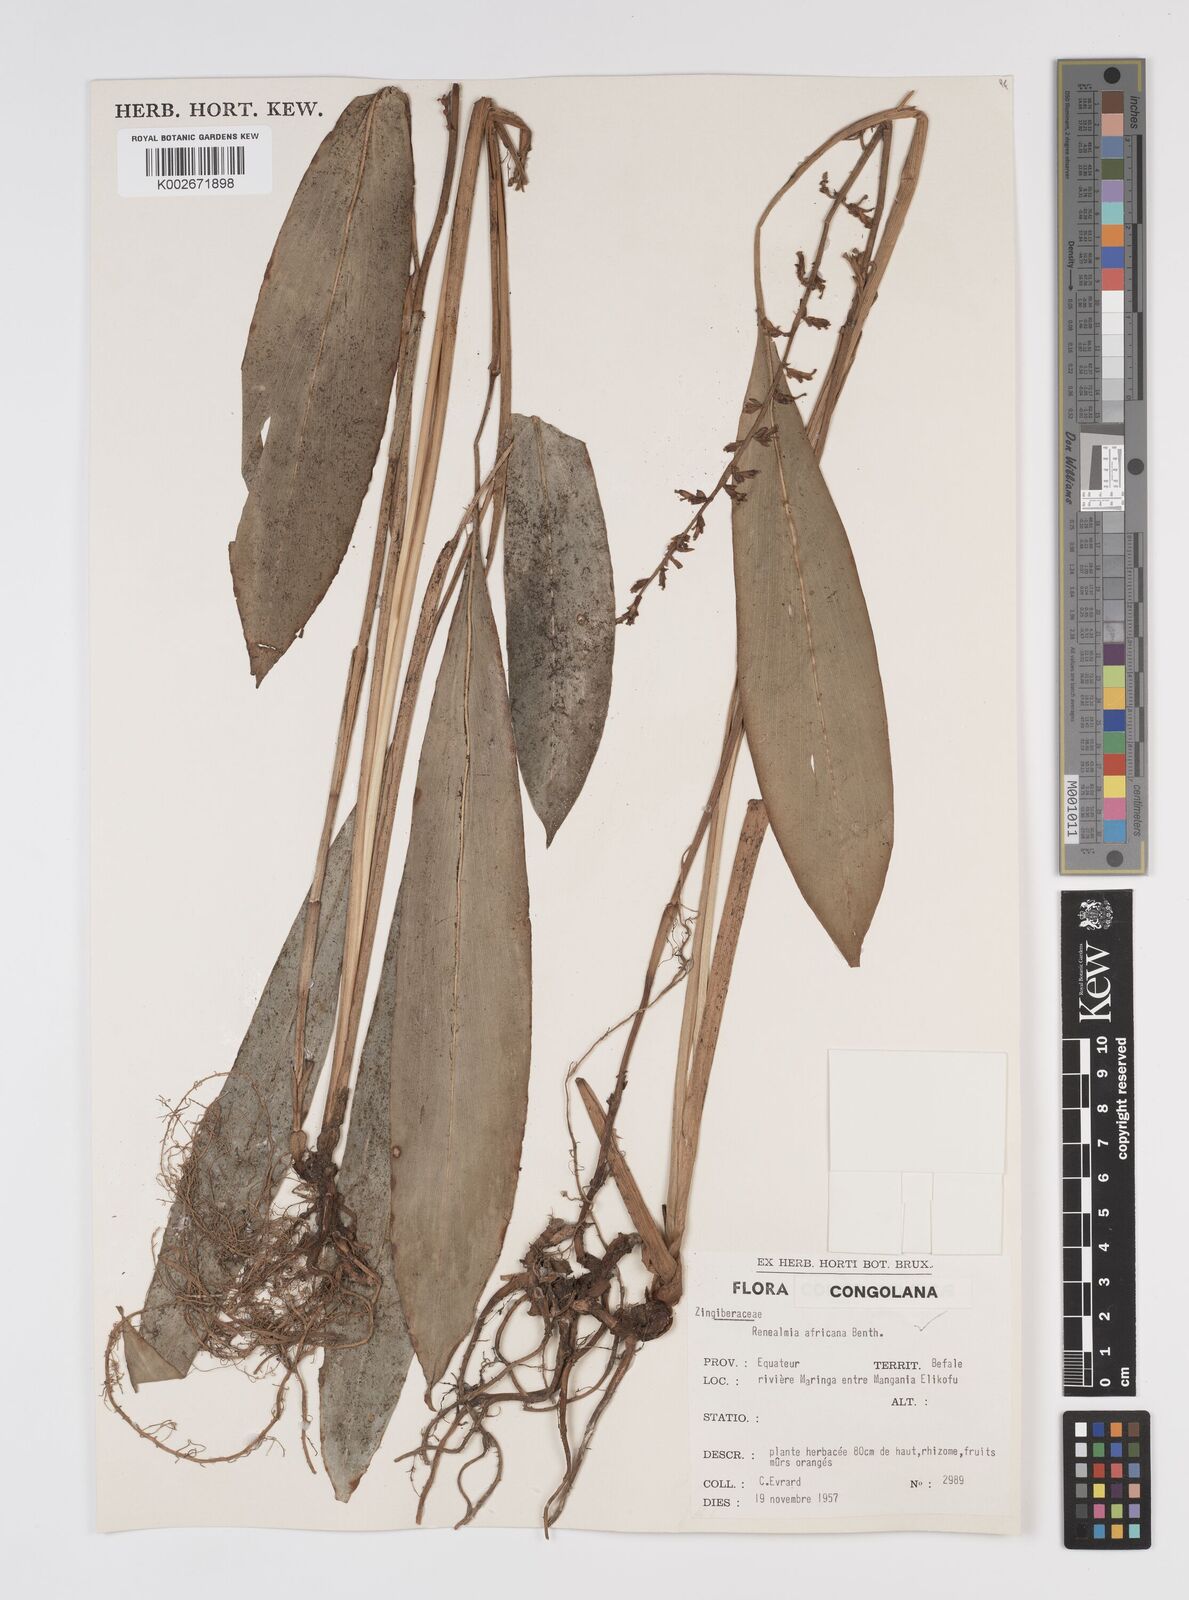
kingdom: Plantae
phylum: Tracheophyta
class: Liliopsida
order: Zingiberales
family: Zingiberaceae
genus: Renealmia
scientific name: Renealmia africana
